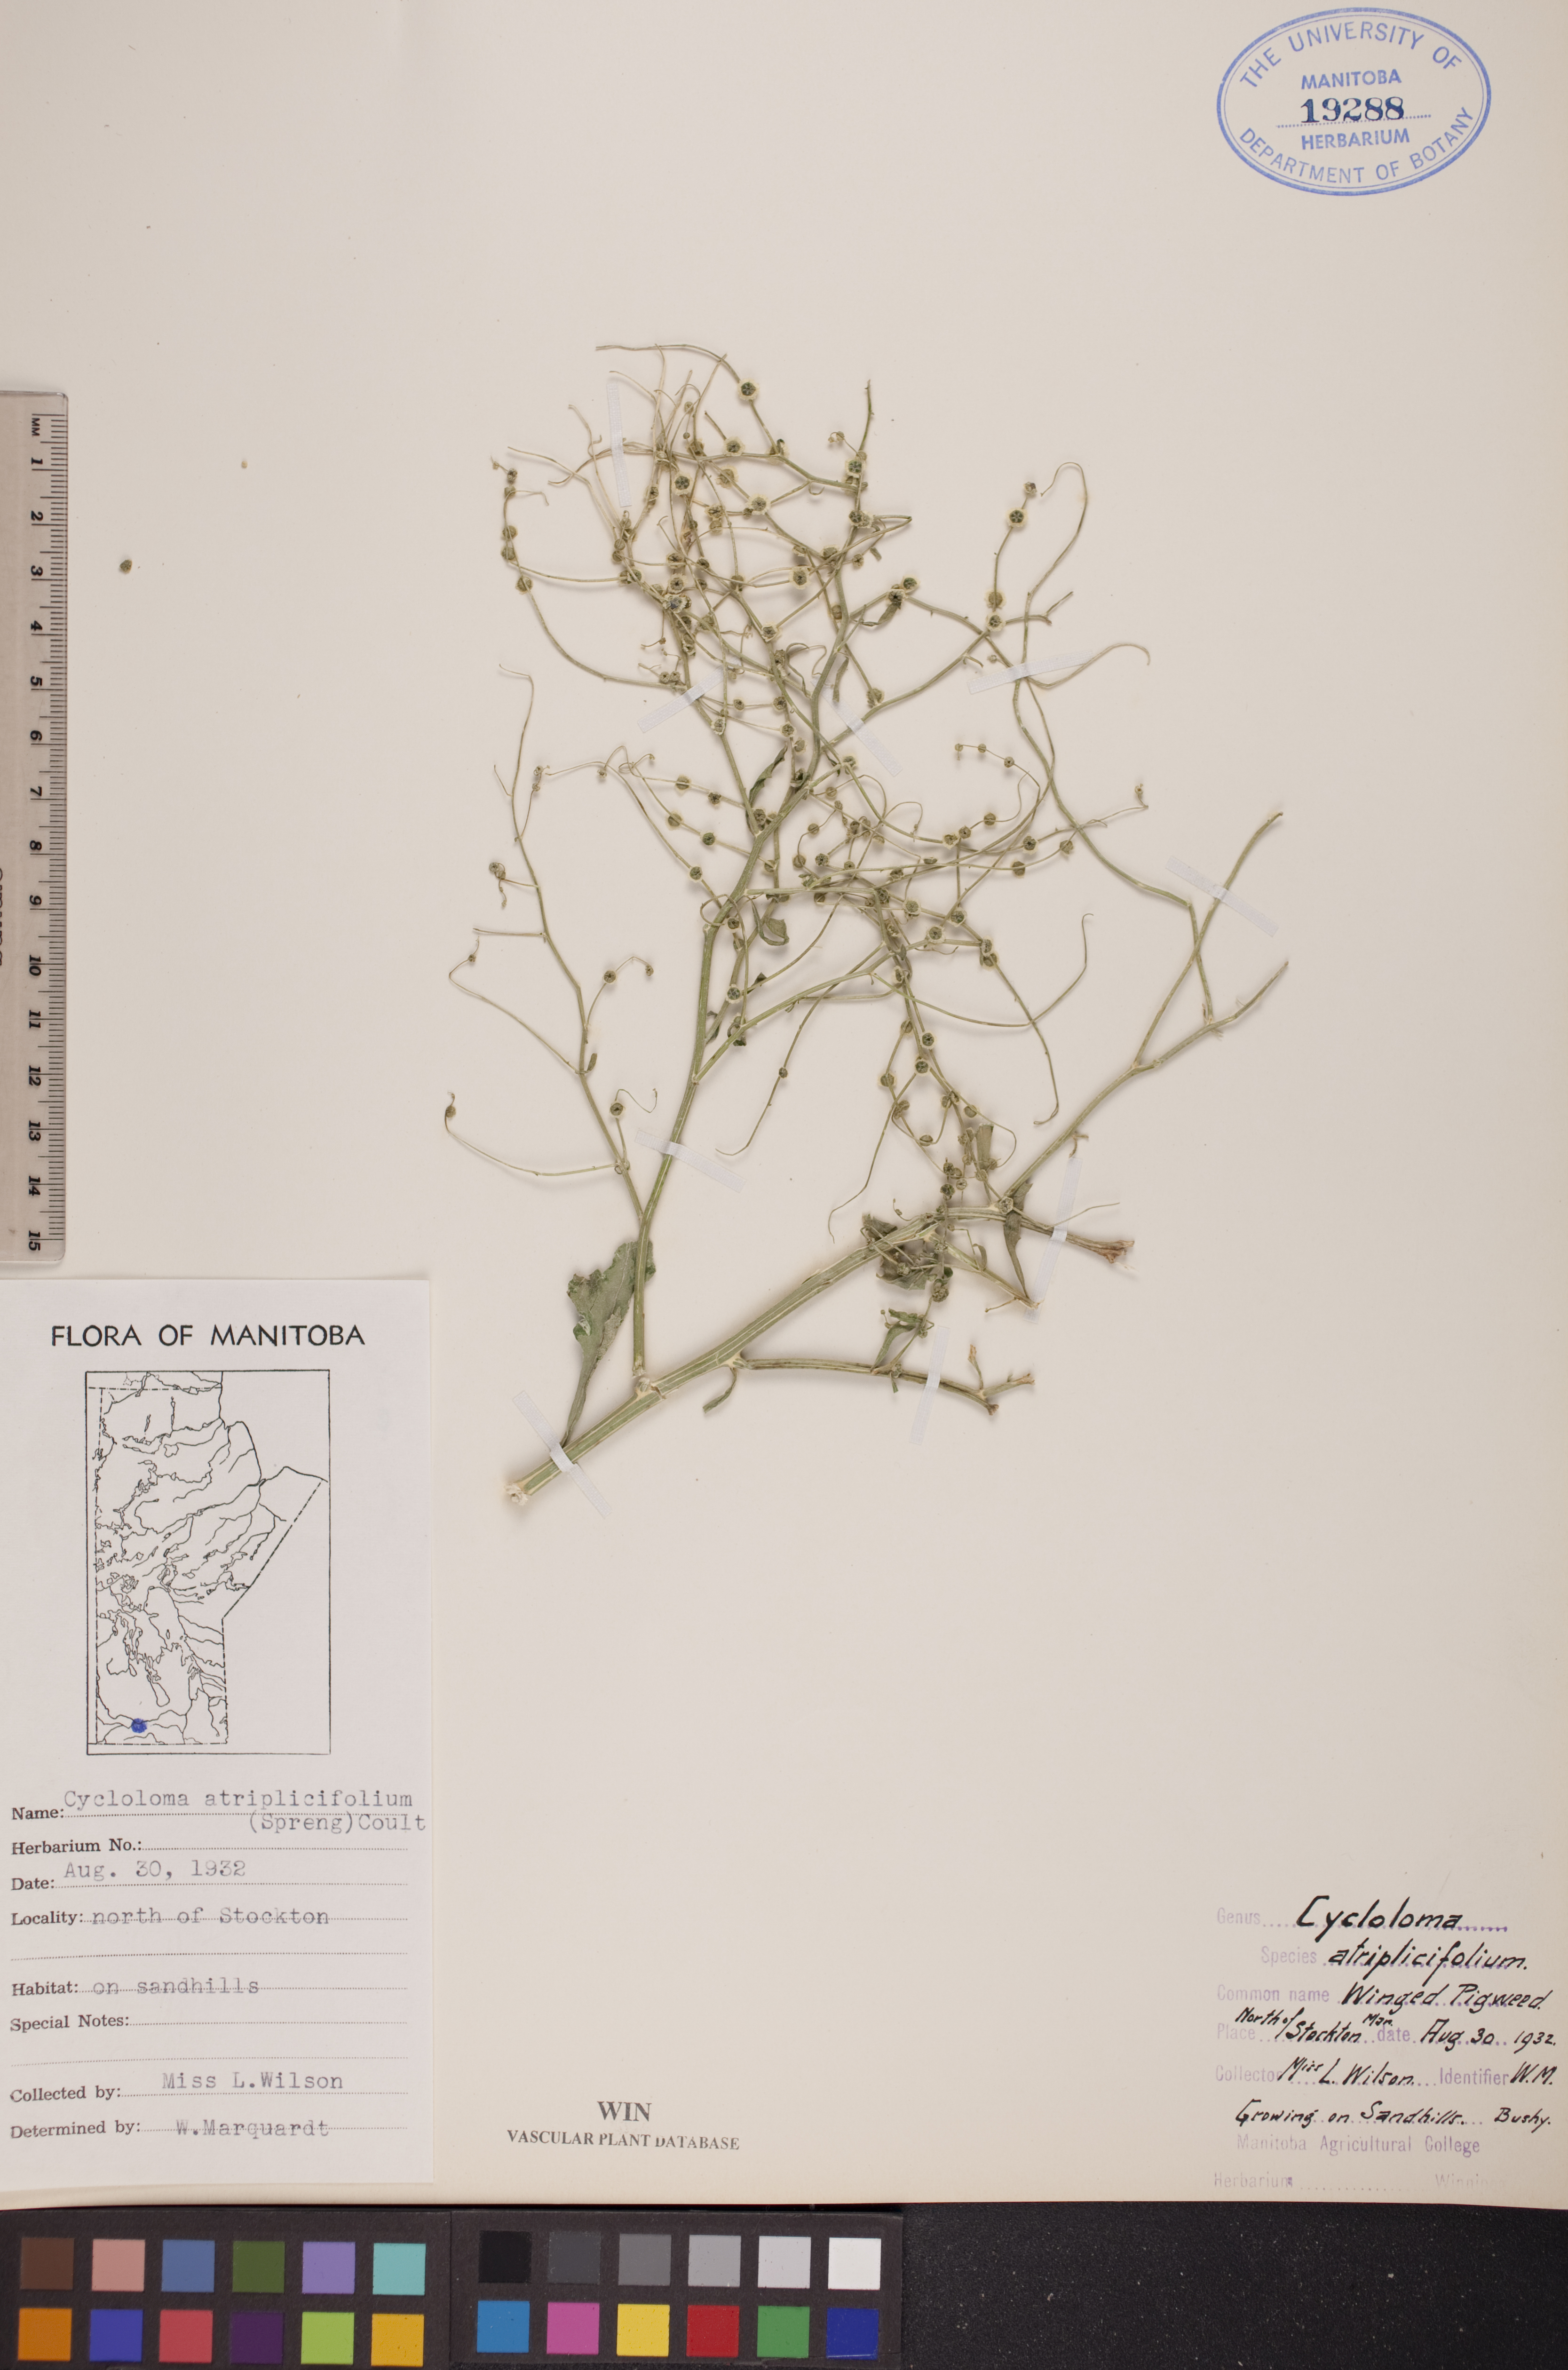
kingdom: Plantae
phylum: Tracheophyta
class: Magnoliopsida
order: Caryophyllales
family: Amaranthaceae
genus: Dysphania
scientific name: Dysphania atriplicifolia
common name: Plains tumbleweed
